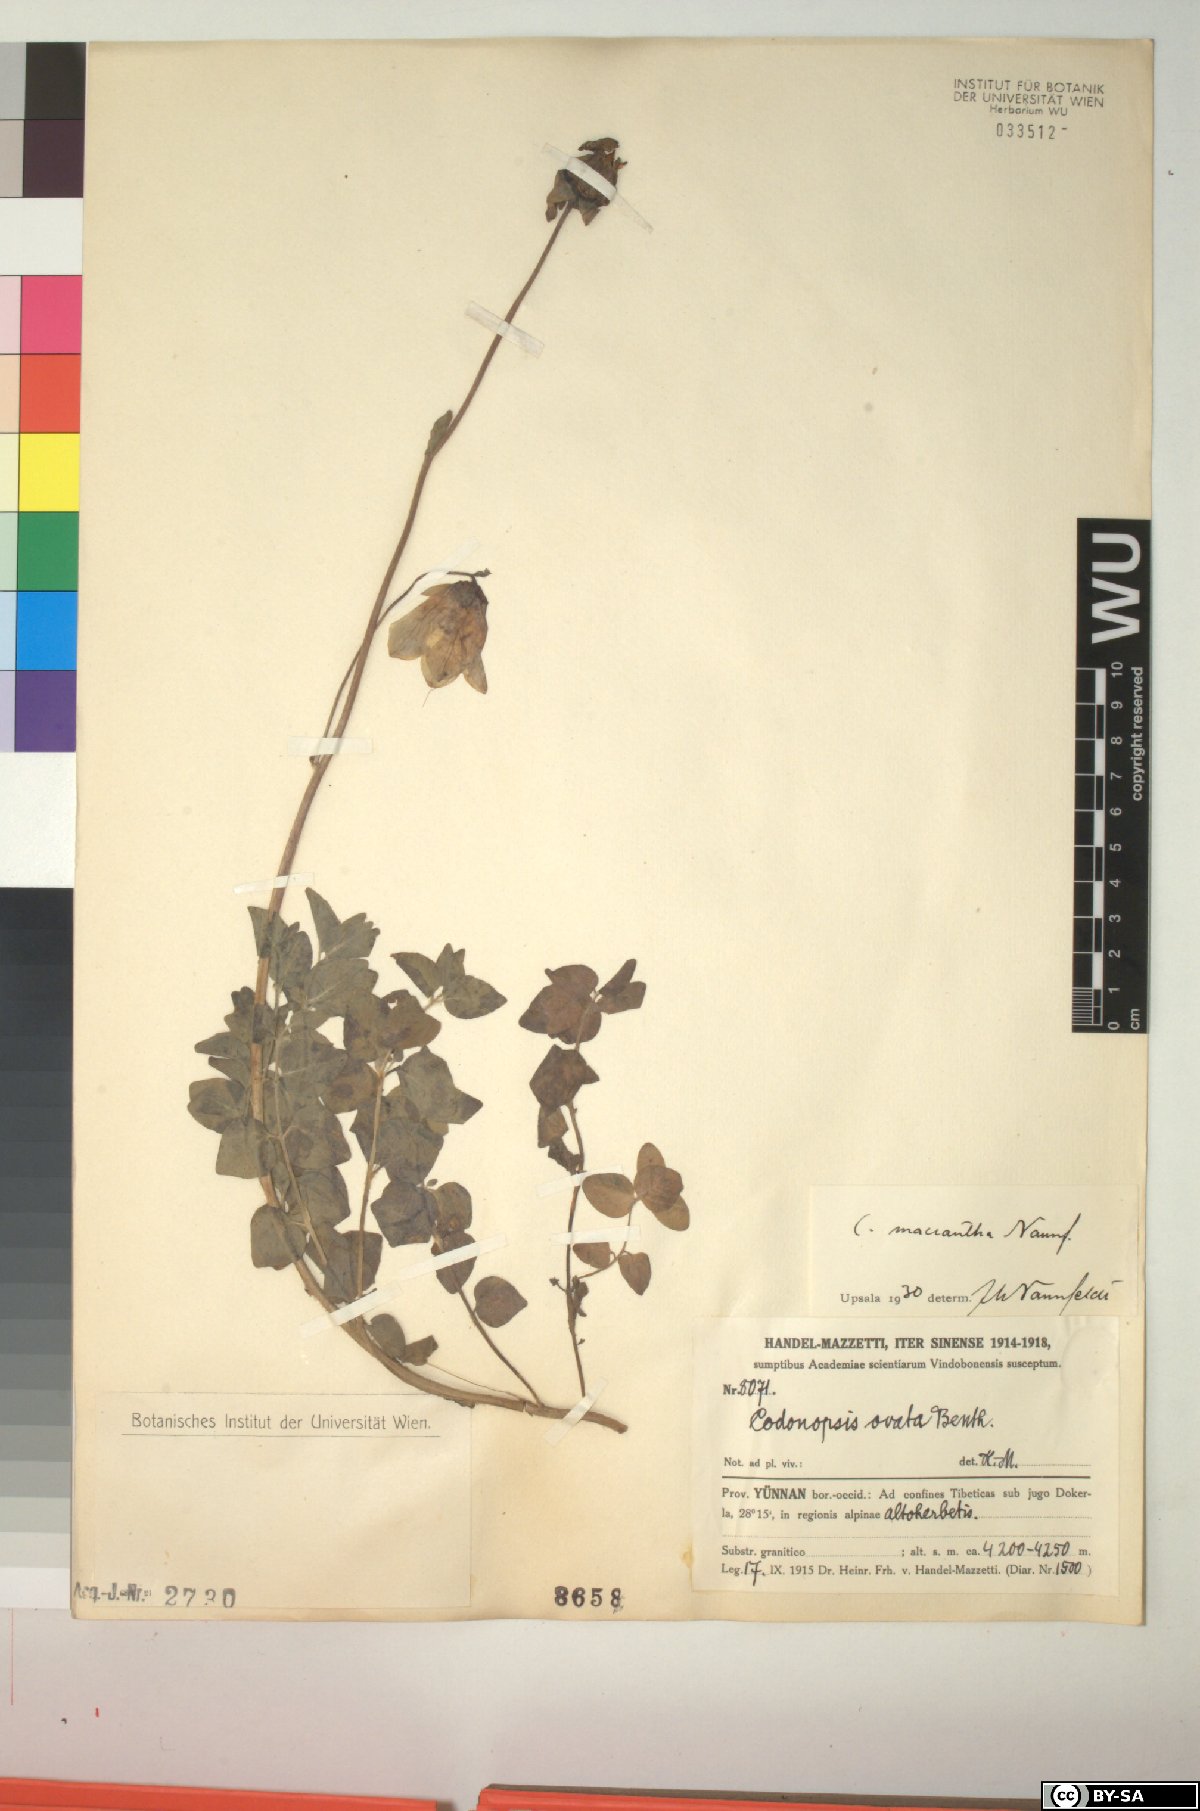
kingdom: Plantae
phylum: Tracheophyta
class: Magnoliopsida
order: Asterales
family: Campanulaceae
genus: Codonopsis
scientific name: Codonopsis foetens
